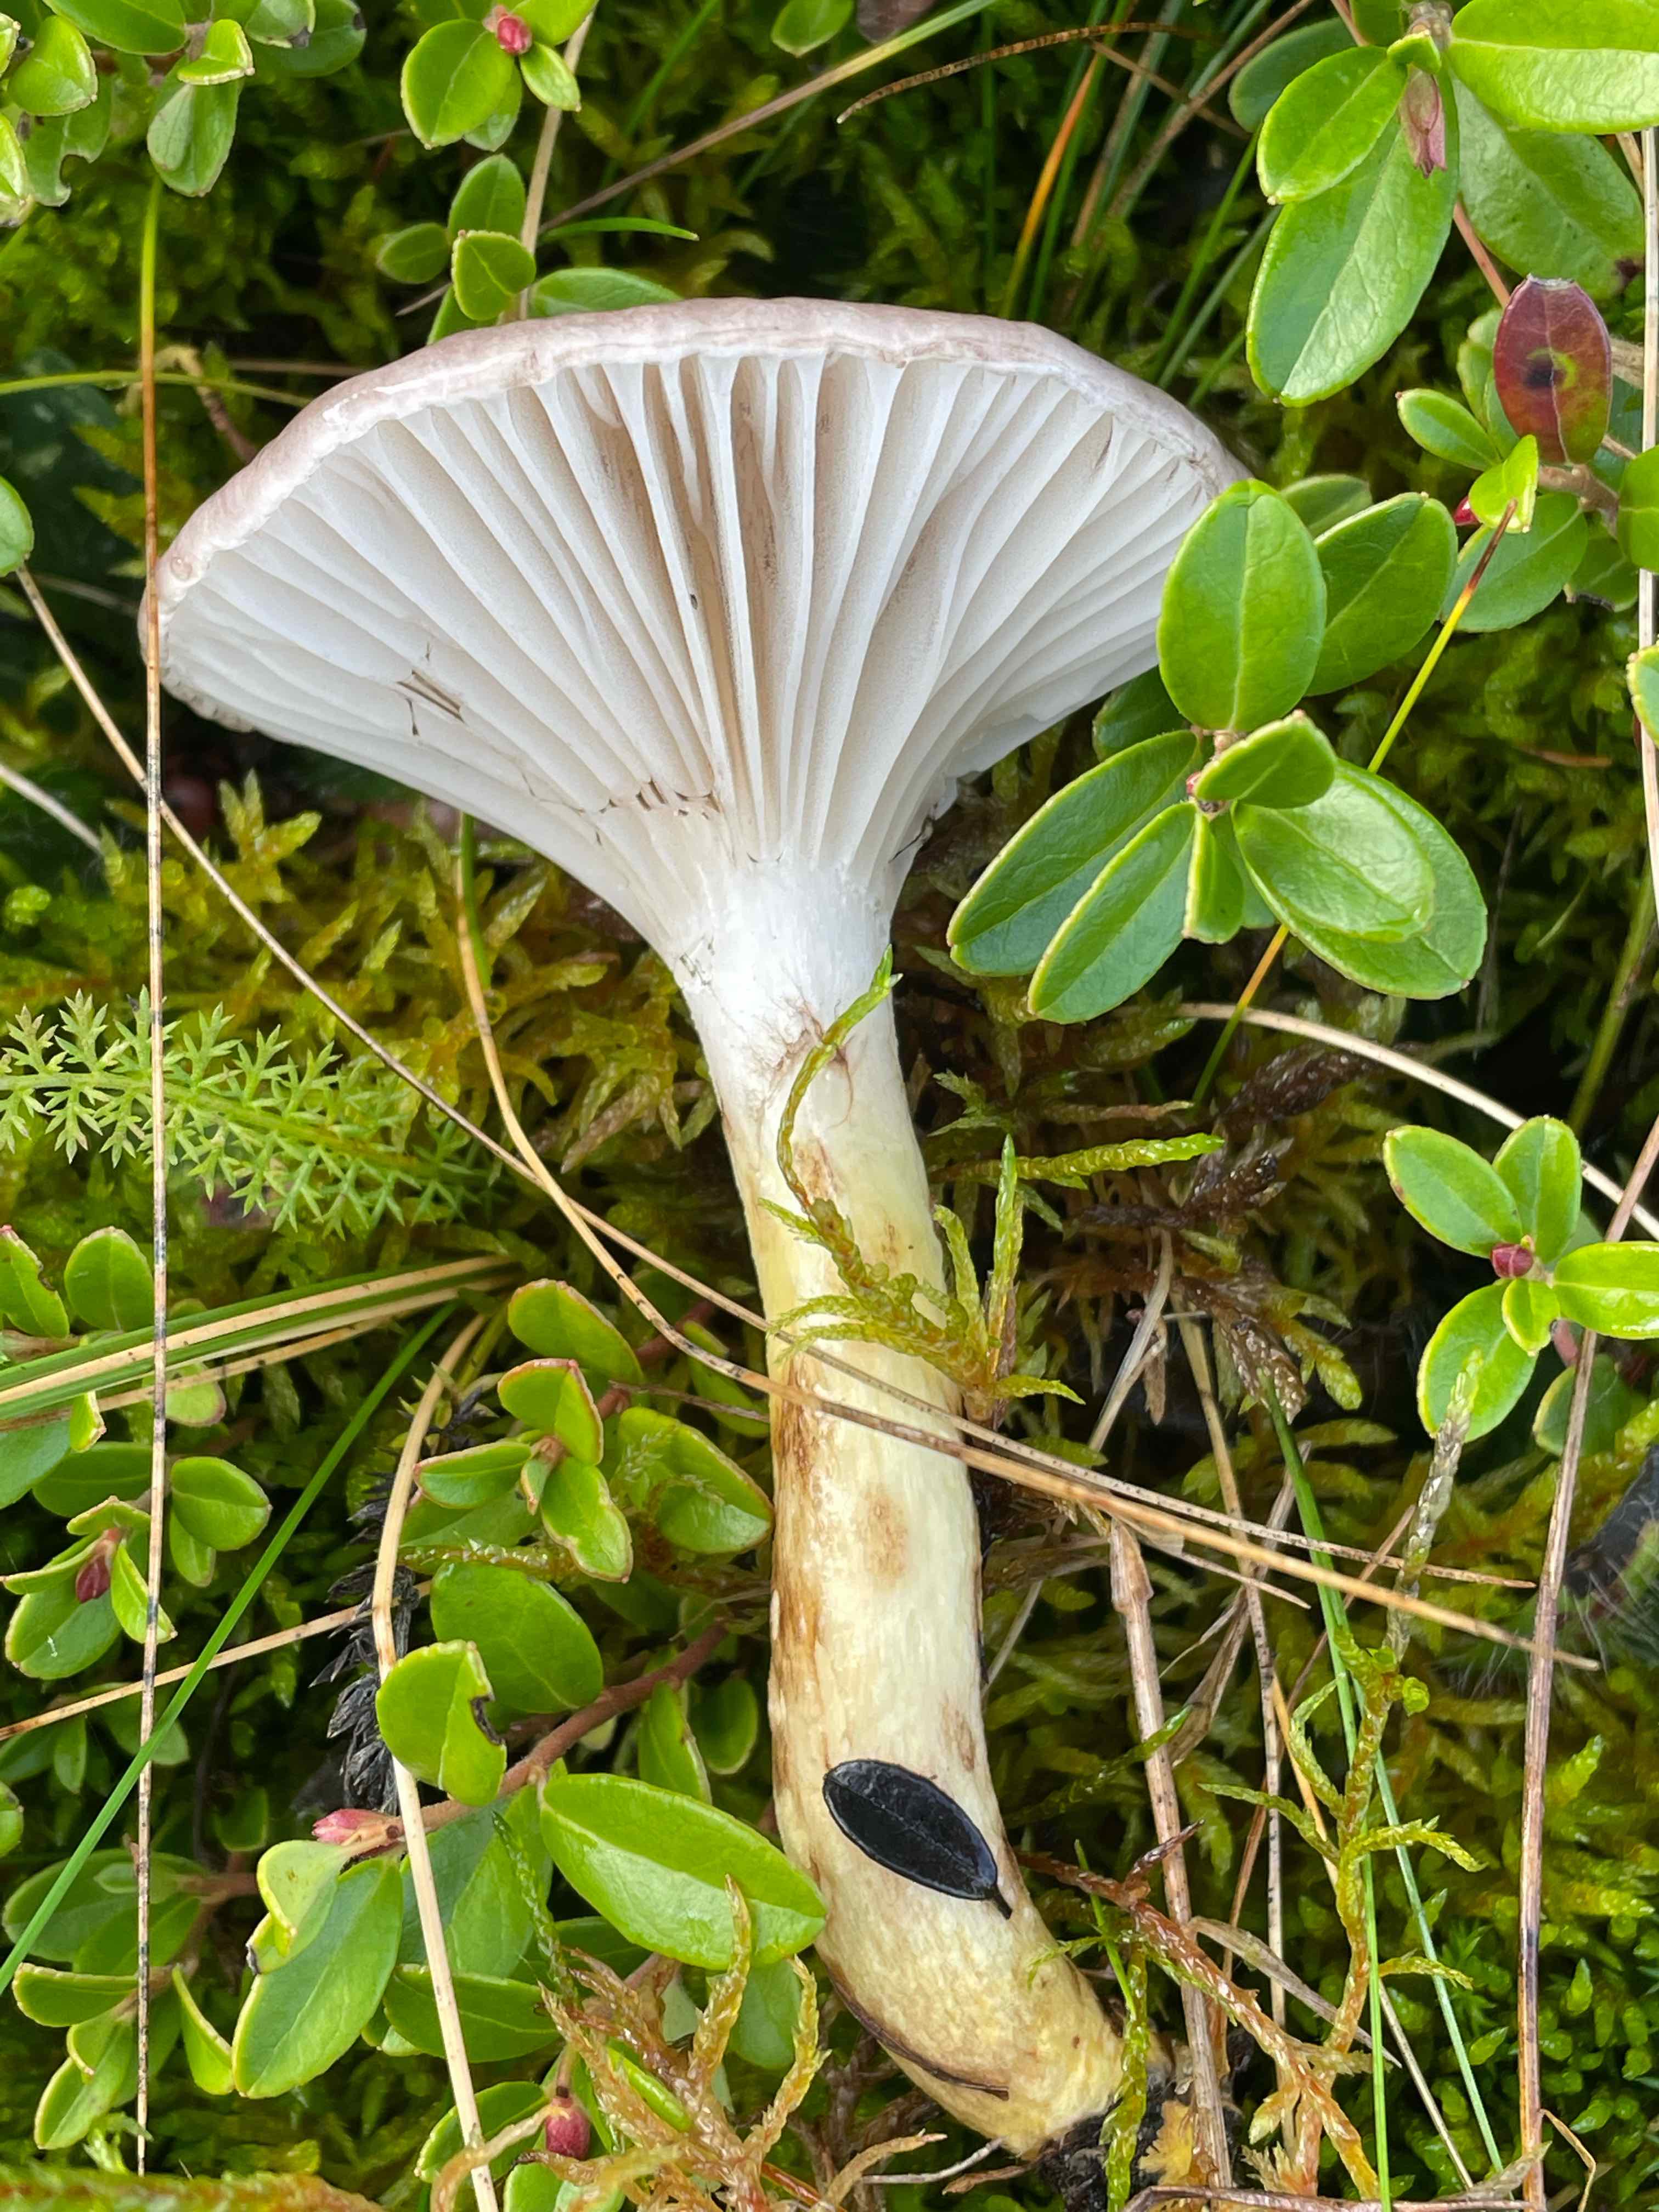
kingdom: Fungi
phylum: Basidiomycota
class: Agaricomycetes
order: Boletales
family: Gomphidiaceae
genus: Gomphidius
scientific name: Gomphidius glutinosus
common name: grå slimslør
